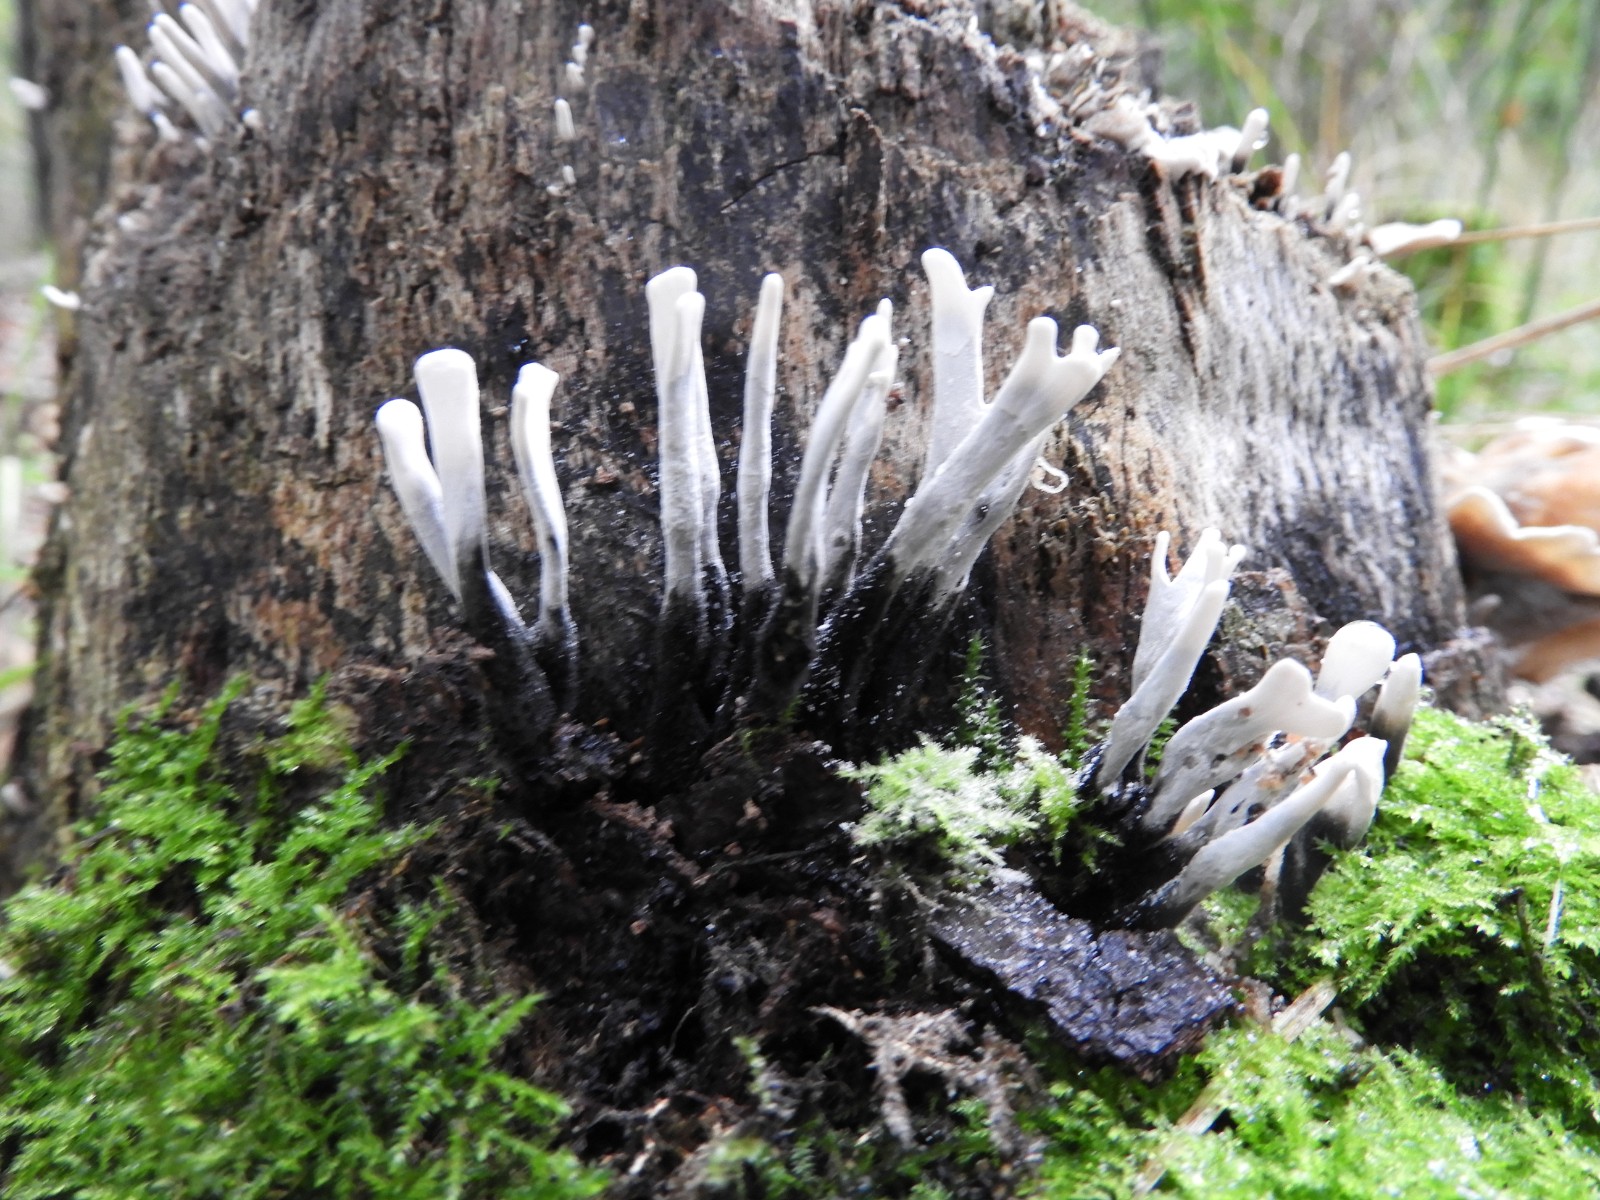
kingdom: Fungi
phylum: Ascomycota
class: Sordariomycetes
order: Xylariales
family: Xylariaceae
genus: Xylaria
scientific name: Xylaria hypoxylon
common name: grenet stødsvamp
